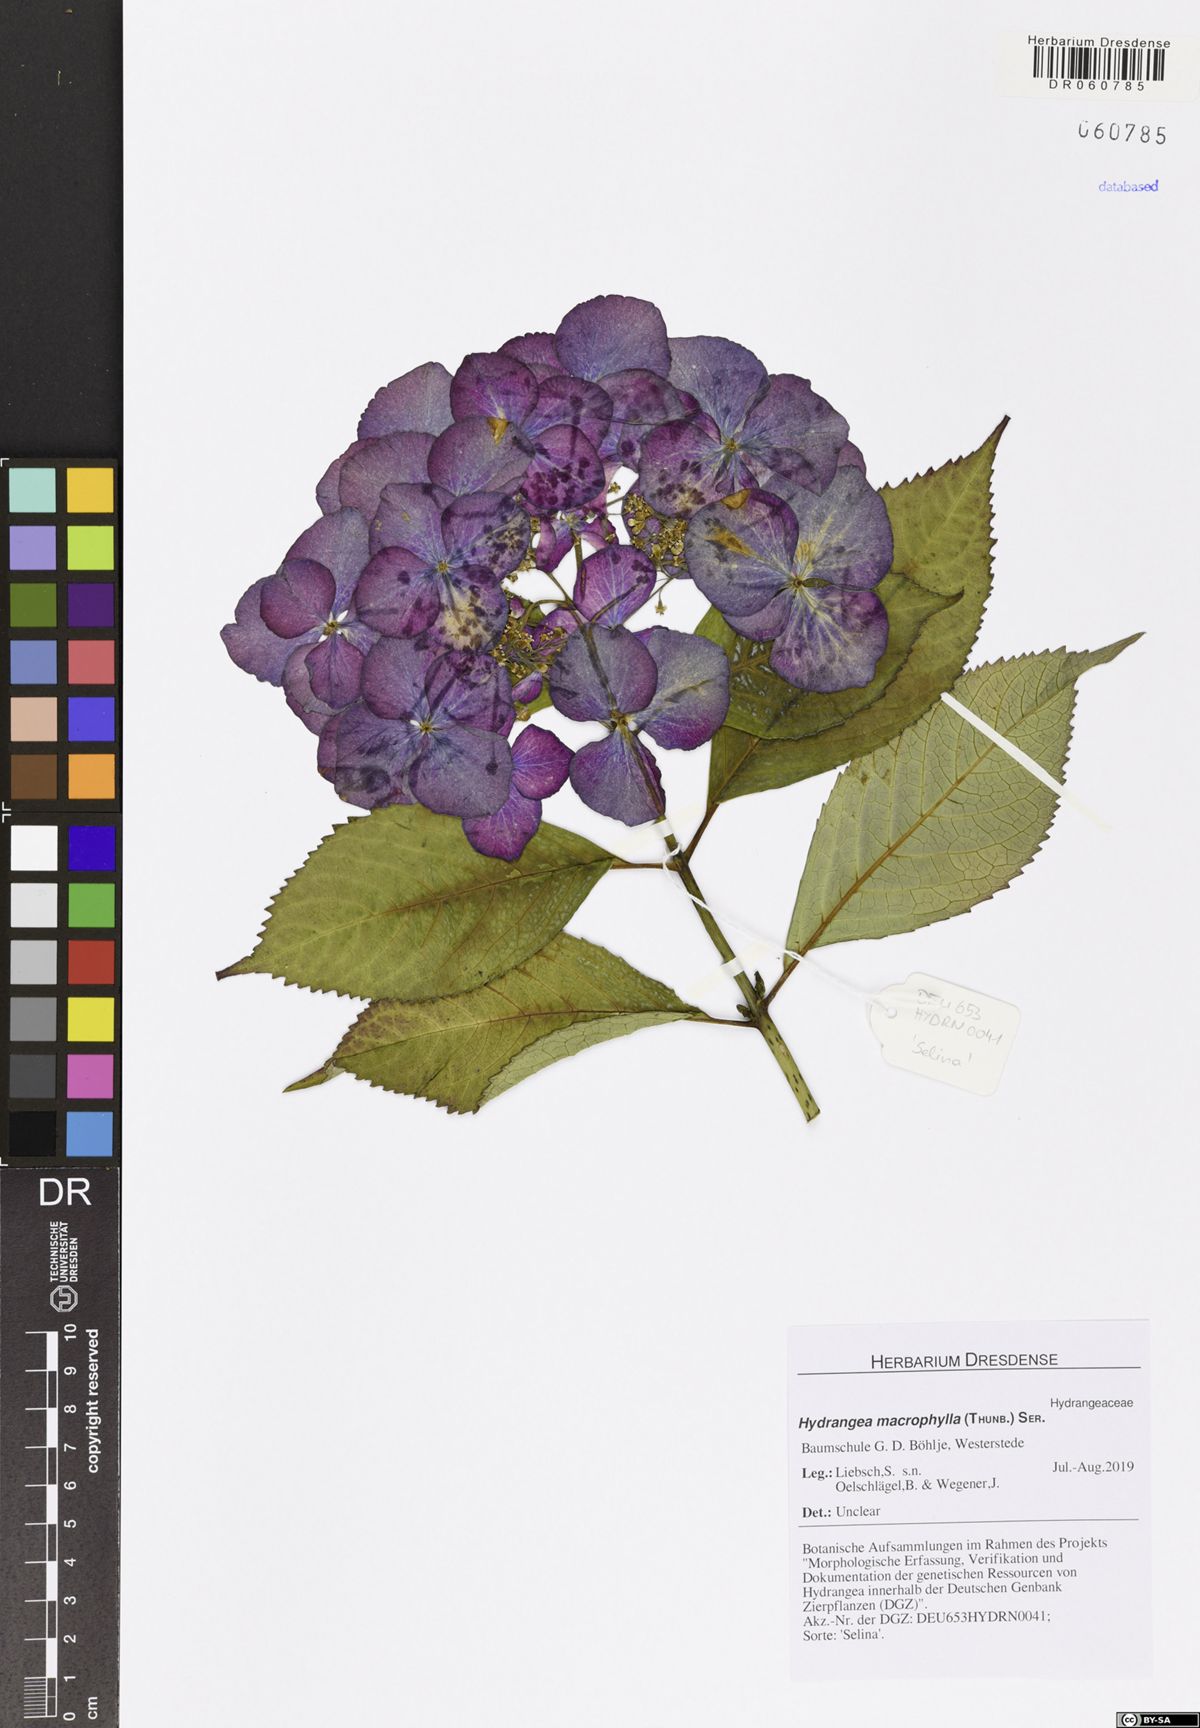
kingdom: Plantae
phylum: Tracheophyta
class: Magnoliopsida
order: Cornales
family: Hydrangeaceae
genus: Hydrangea
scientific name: Hydrangea macrophylla
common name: Hydrangea
